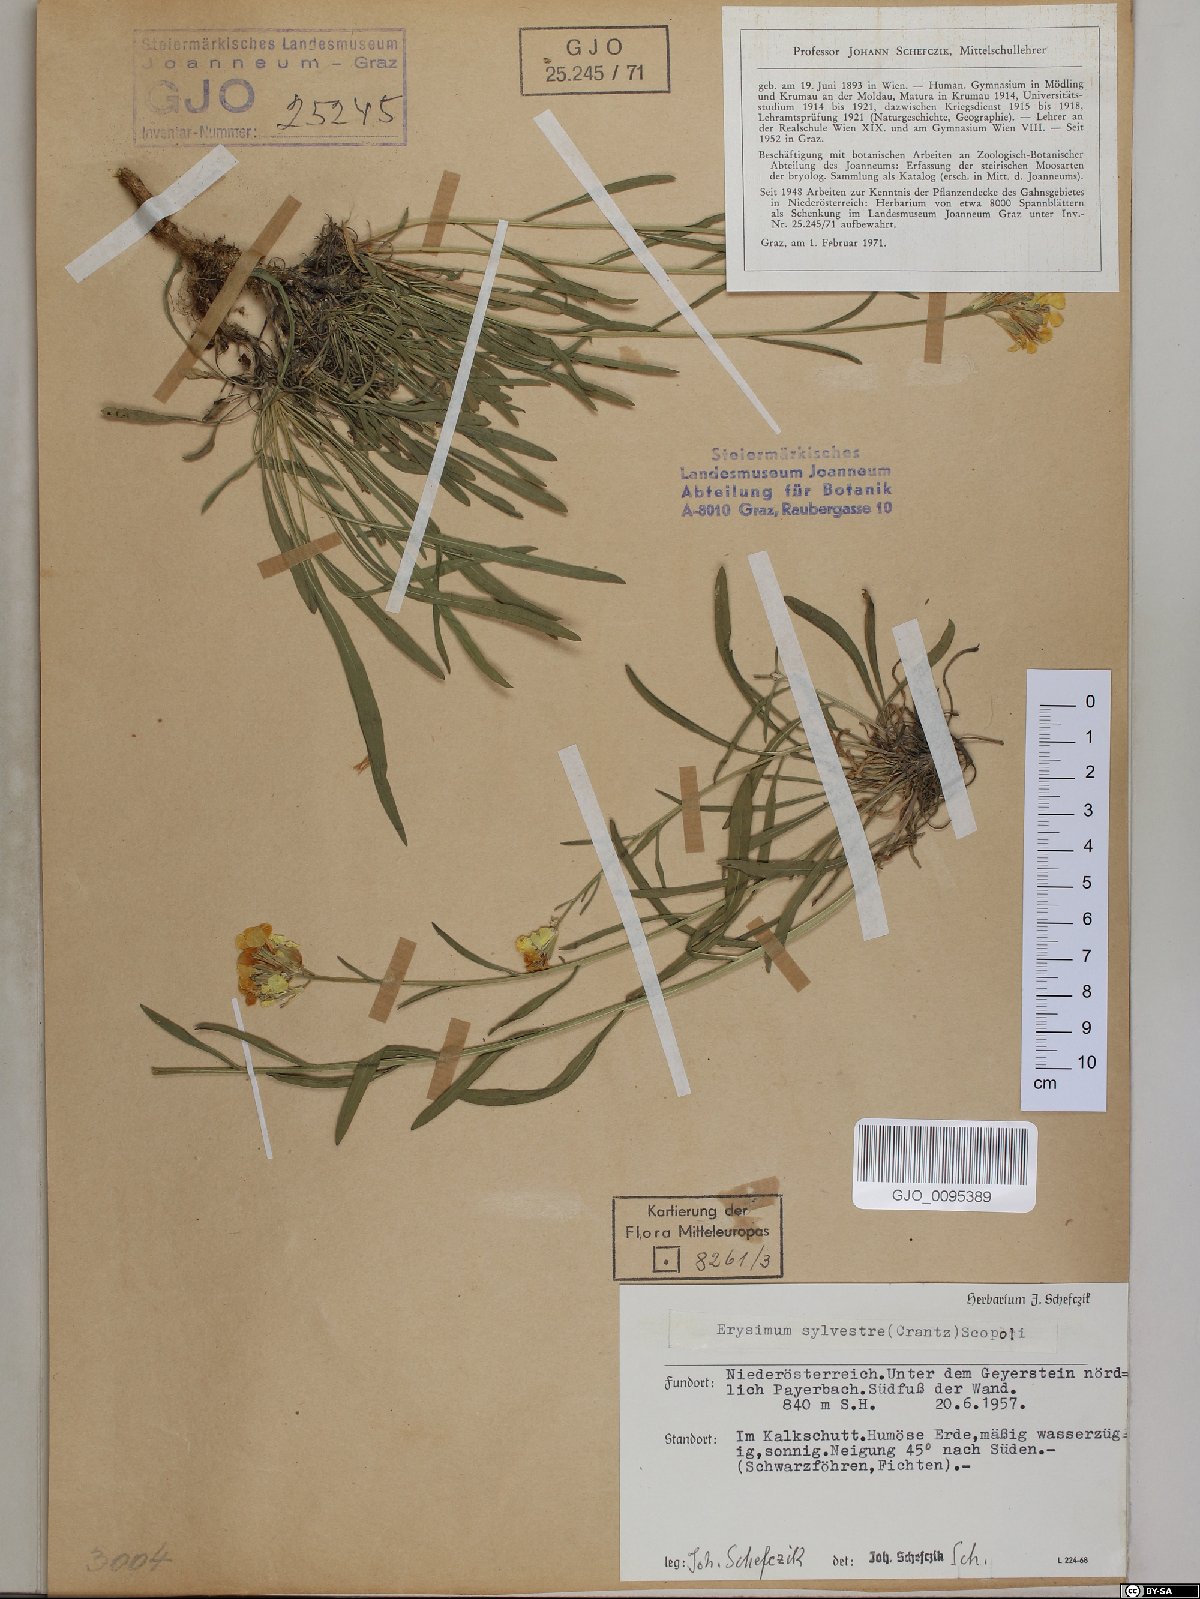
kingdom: Plantae
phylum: Tracheophyta
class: Magnoliopsida
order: Brassicales
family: Brassicaceae
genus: Erysimum
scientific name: Erysimum sylvestre
